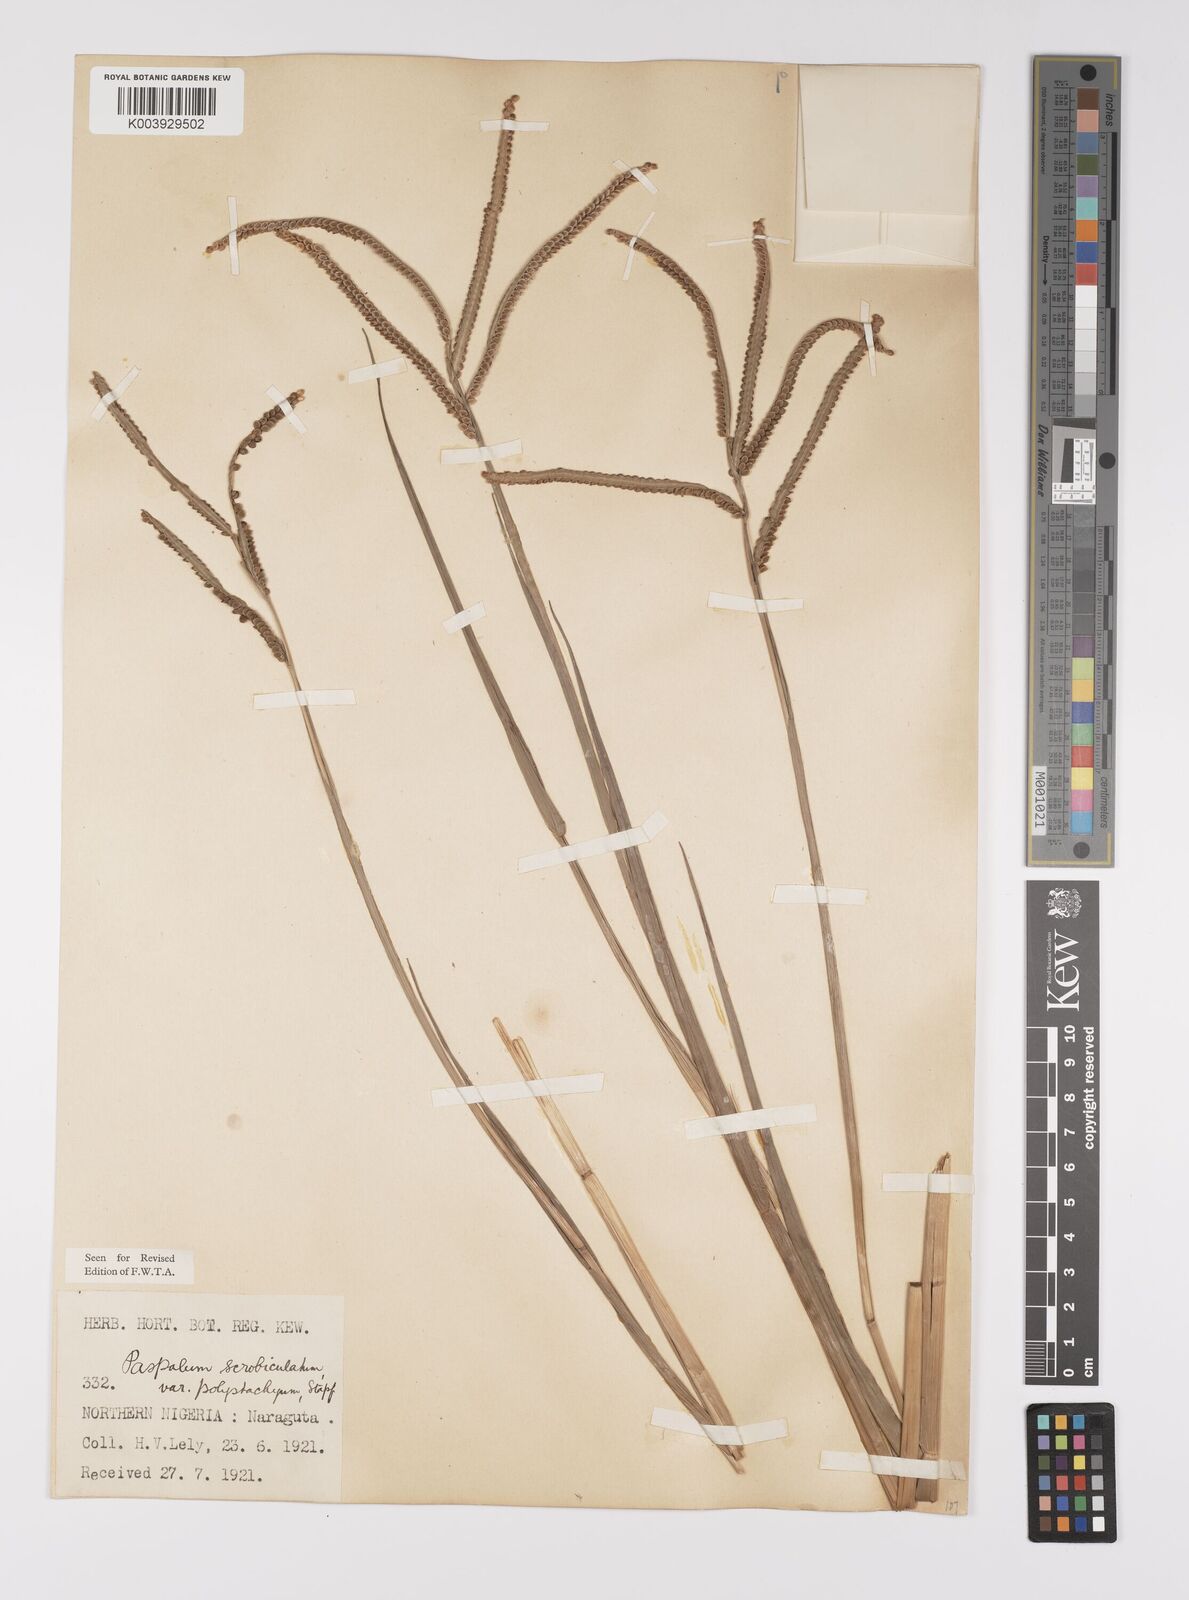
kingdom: Plantae
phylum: Tracheophyta
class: Liliopsida
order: Poales
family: Poaceae
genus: Paspalum
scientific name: Paspalum scrobiculatum
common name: Kodo millet
